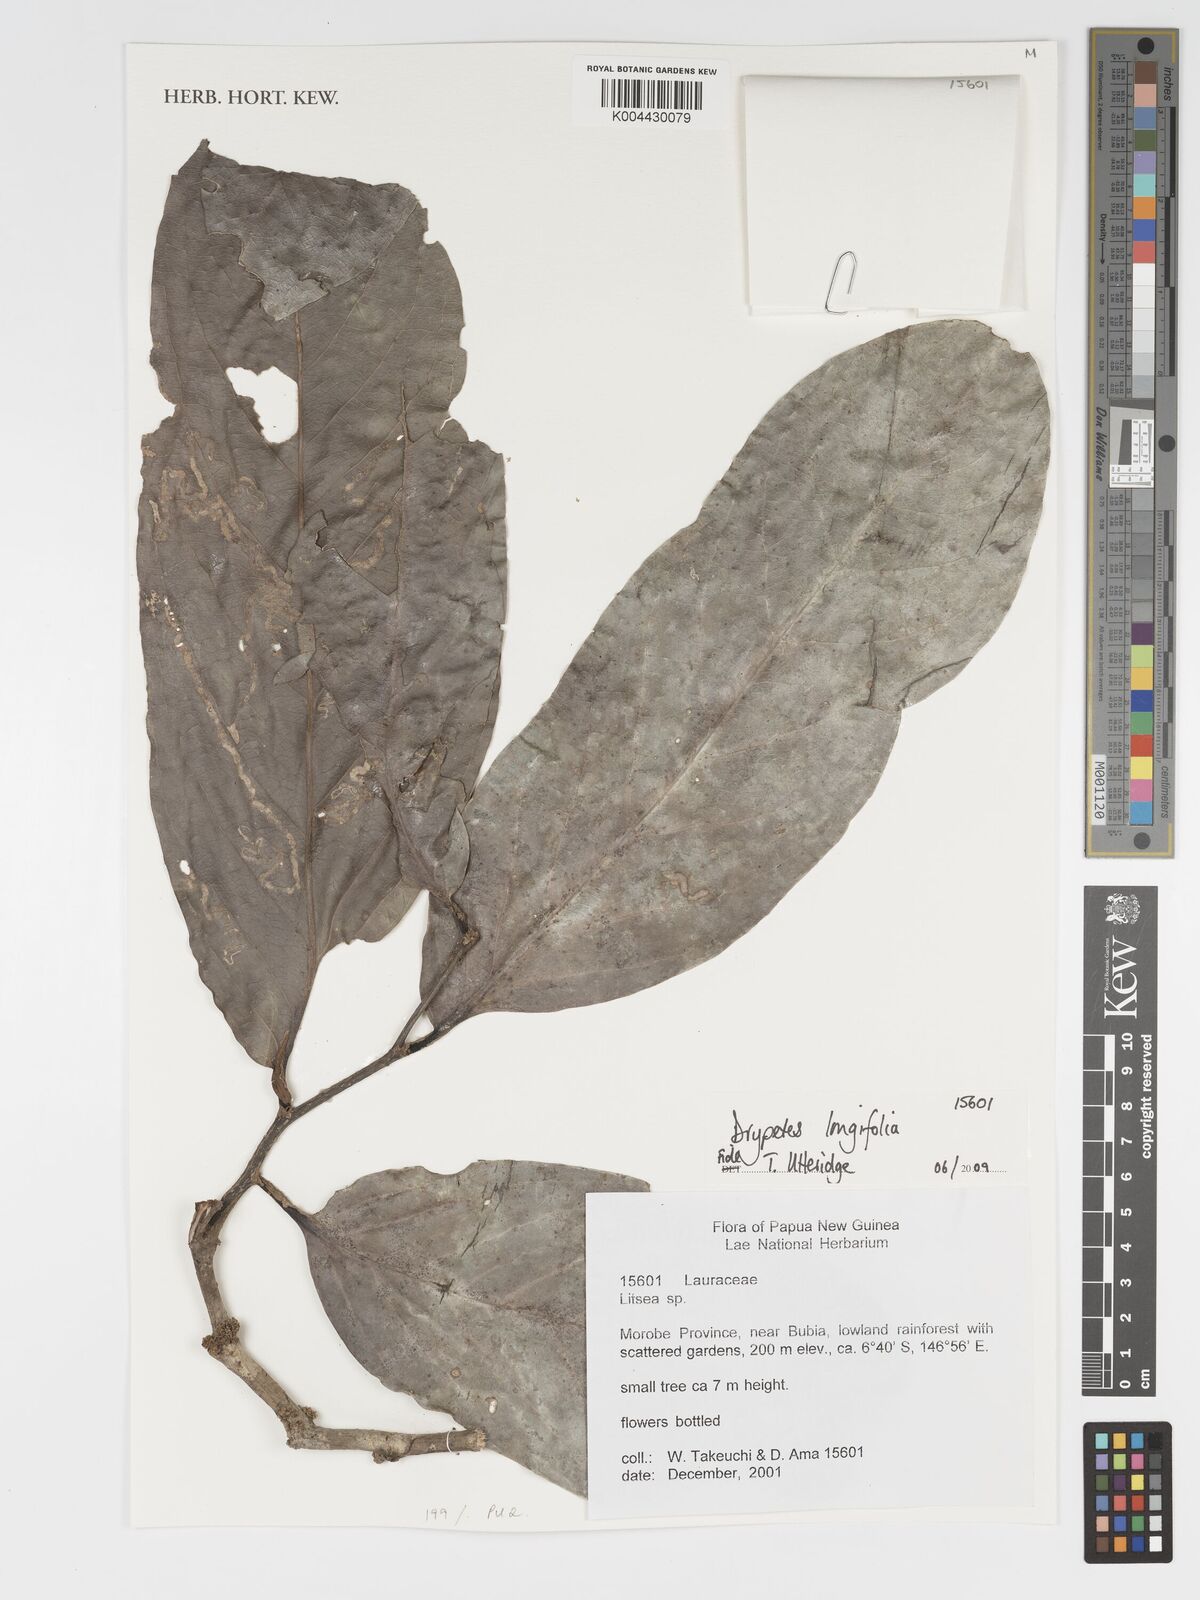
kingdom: Plantae
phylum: Tracheophyta
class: Magnoliopsida
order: Malpighiales
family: Putranjivaceae
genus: Drypetes
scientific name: Drypetes longifolia
